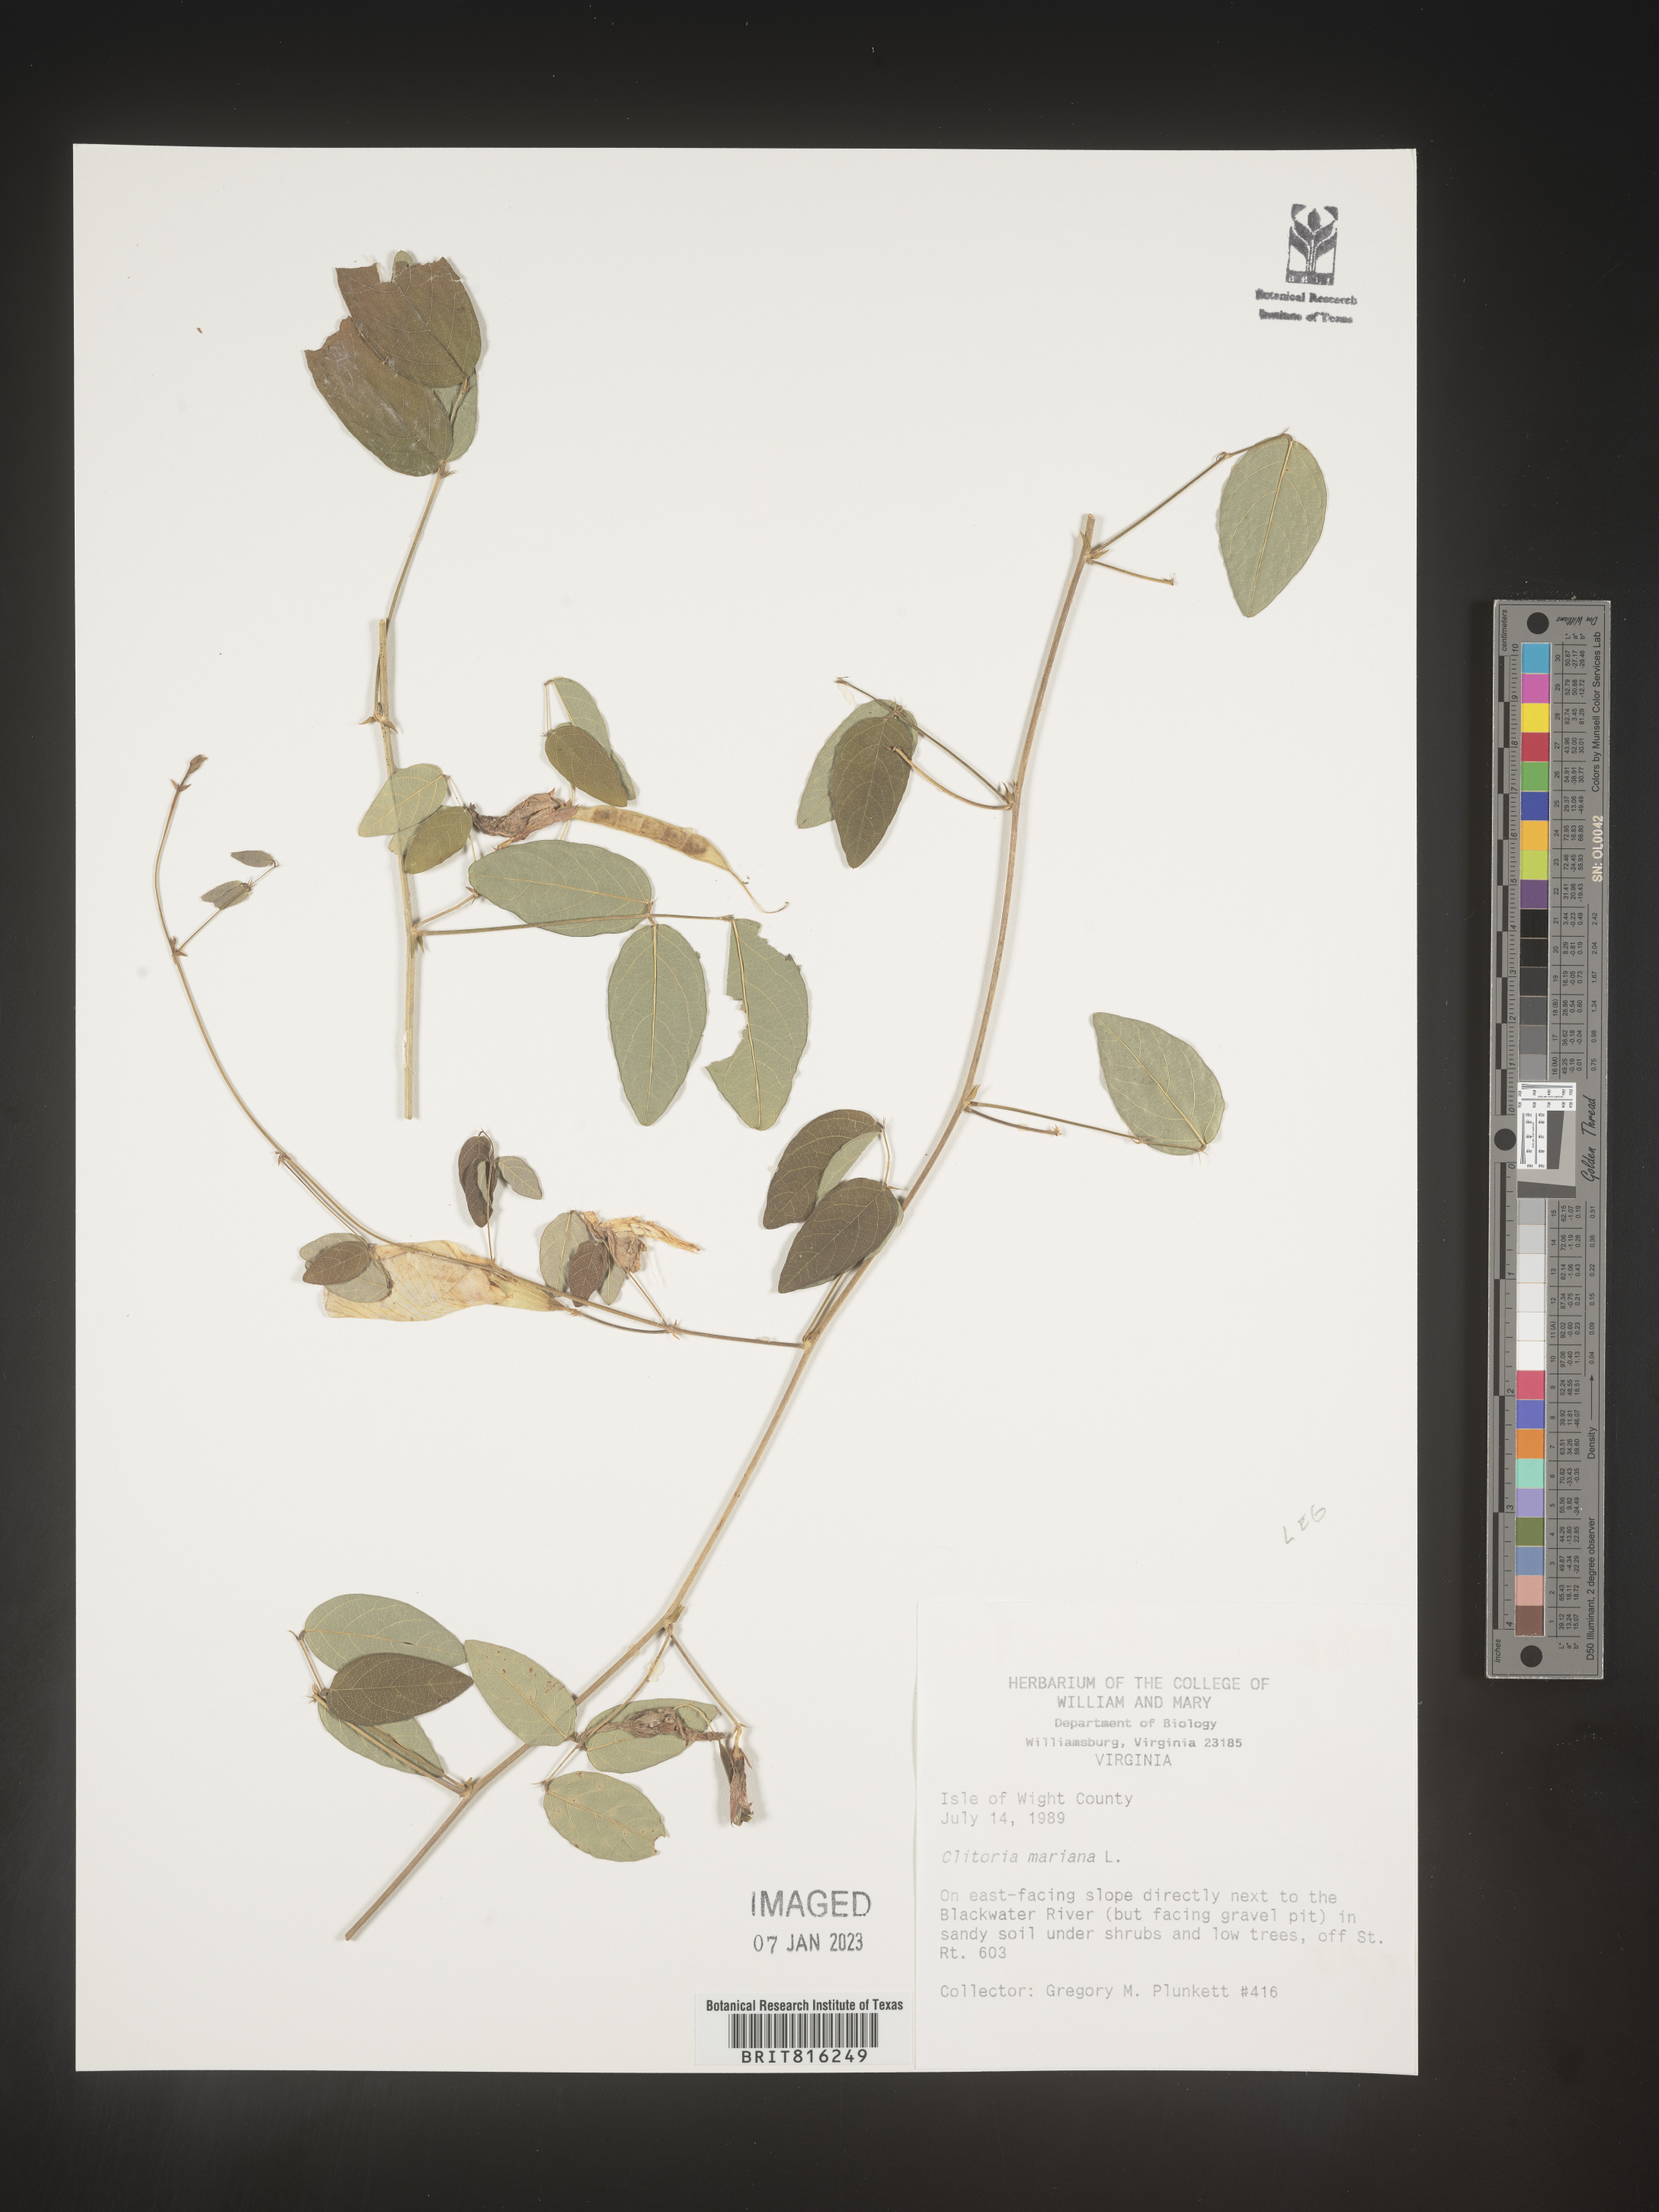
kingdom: Plantae
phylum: Tracheophyta
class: Magnoliopsida
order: Fabales
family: Fabaceae
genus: Clitoria
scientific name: Clitoria mariana
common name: Butterfly-pea
